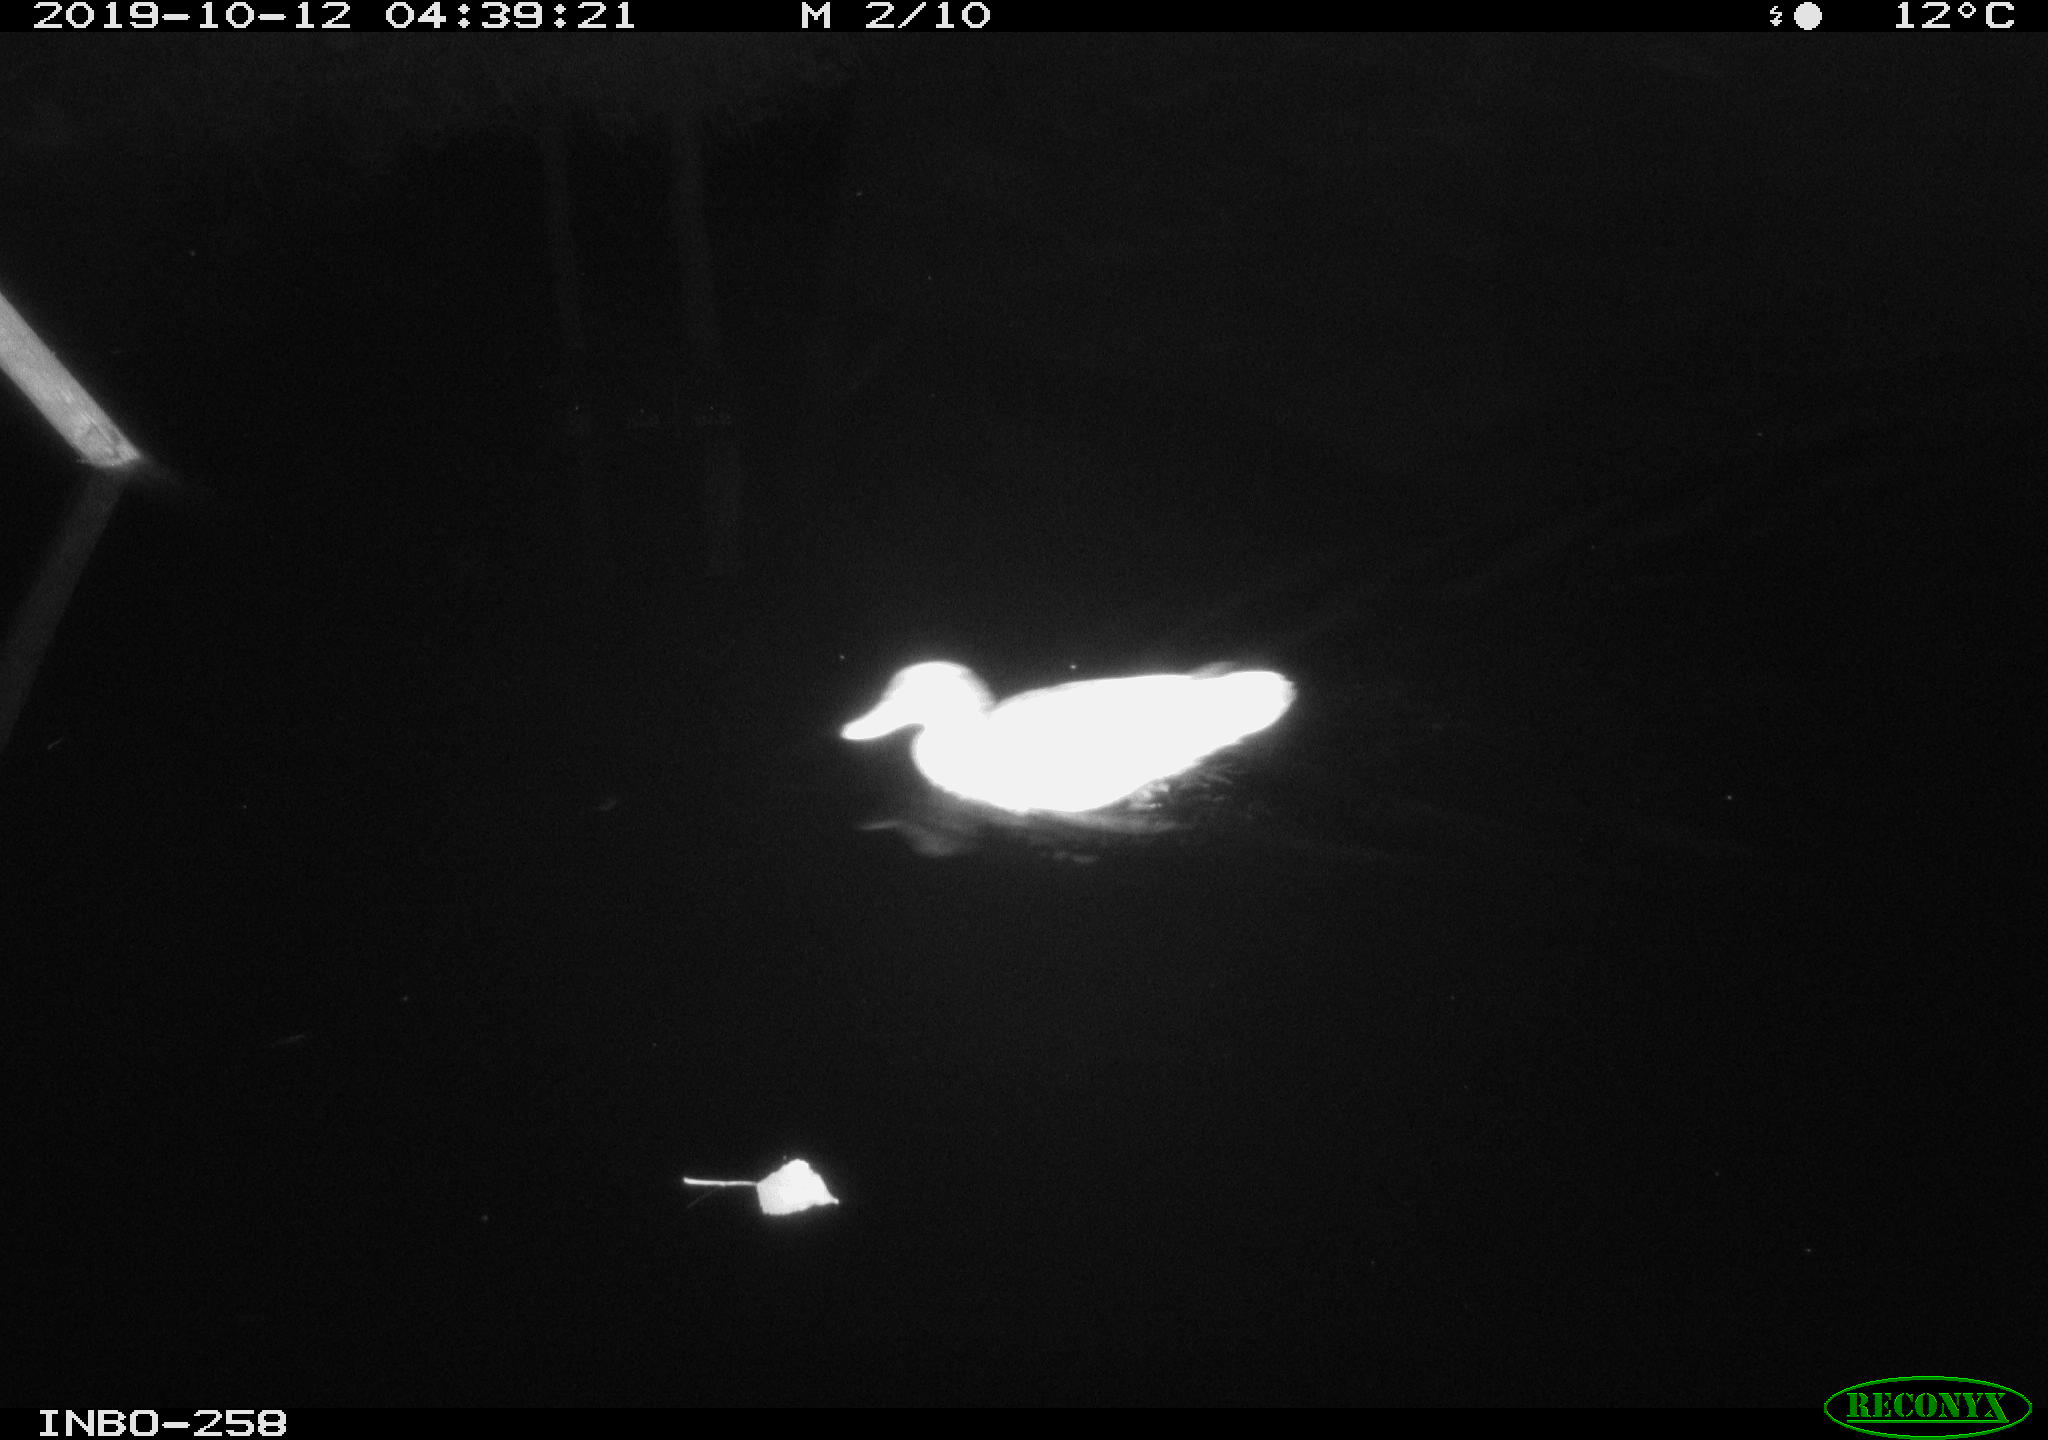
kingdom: Animalia
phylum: Chordata
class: Aves
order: Anseriformes
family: Anatidae
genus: Anas
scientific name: Anas platyrhynchos
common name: Mallard
